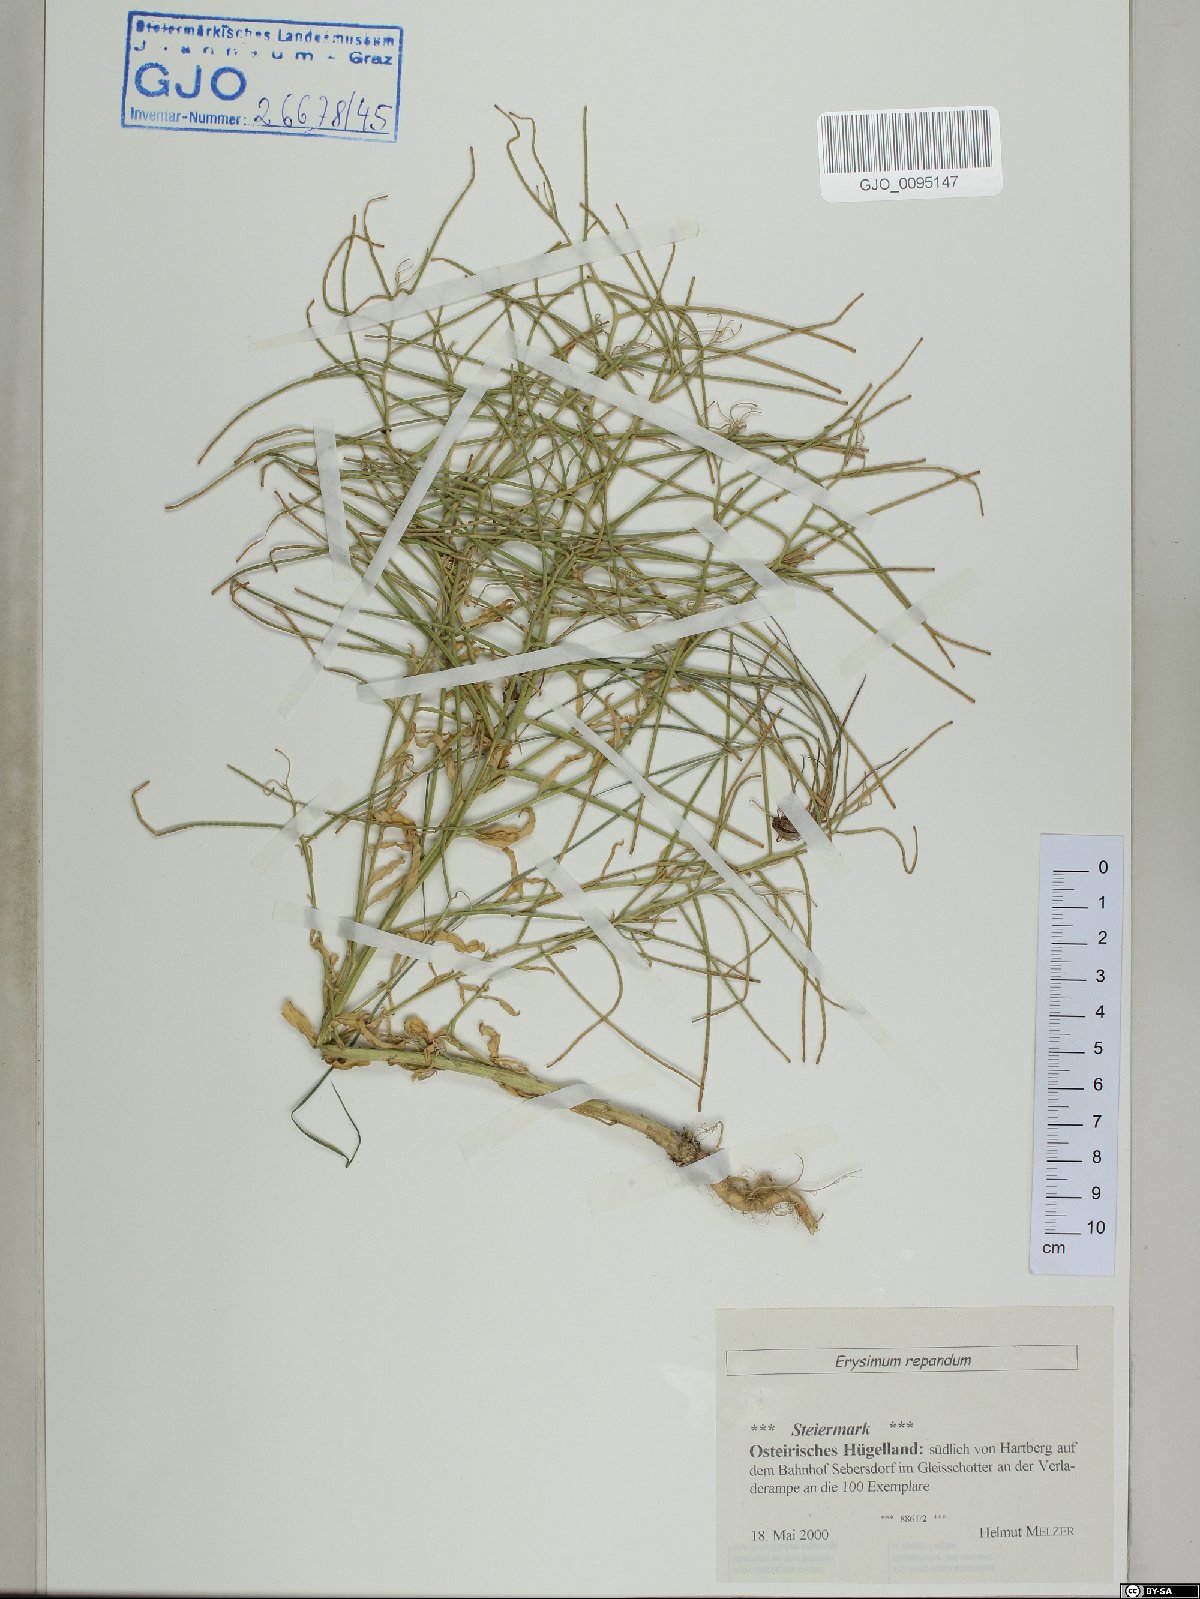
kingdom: Plantae
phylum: Tracheophyta
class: Magnoliopsida
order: Brassicales
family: Brassicaceae
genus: Erysimum
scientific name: Erysimum repandum
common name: Spreading wallflower
